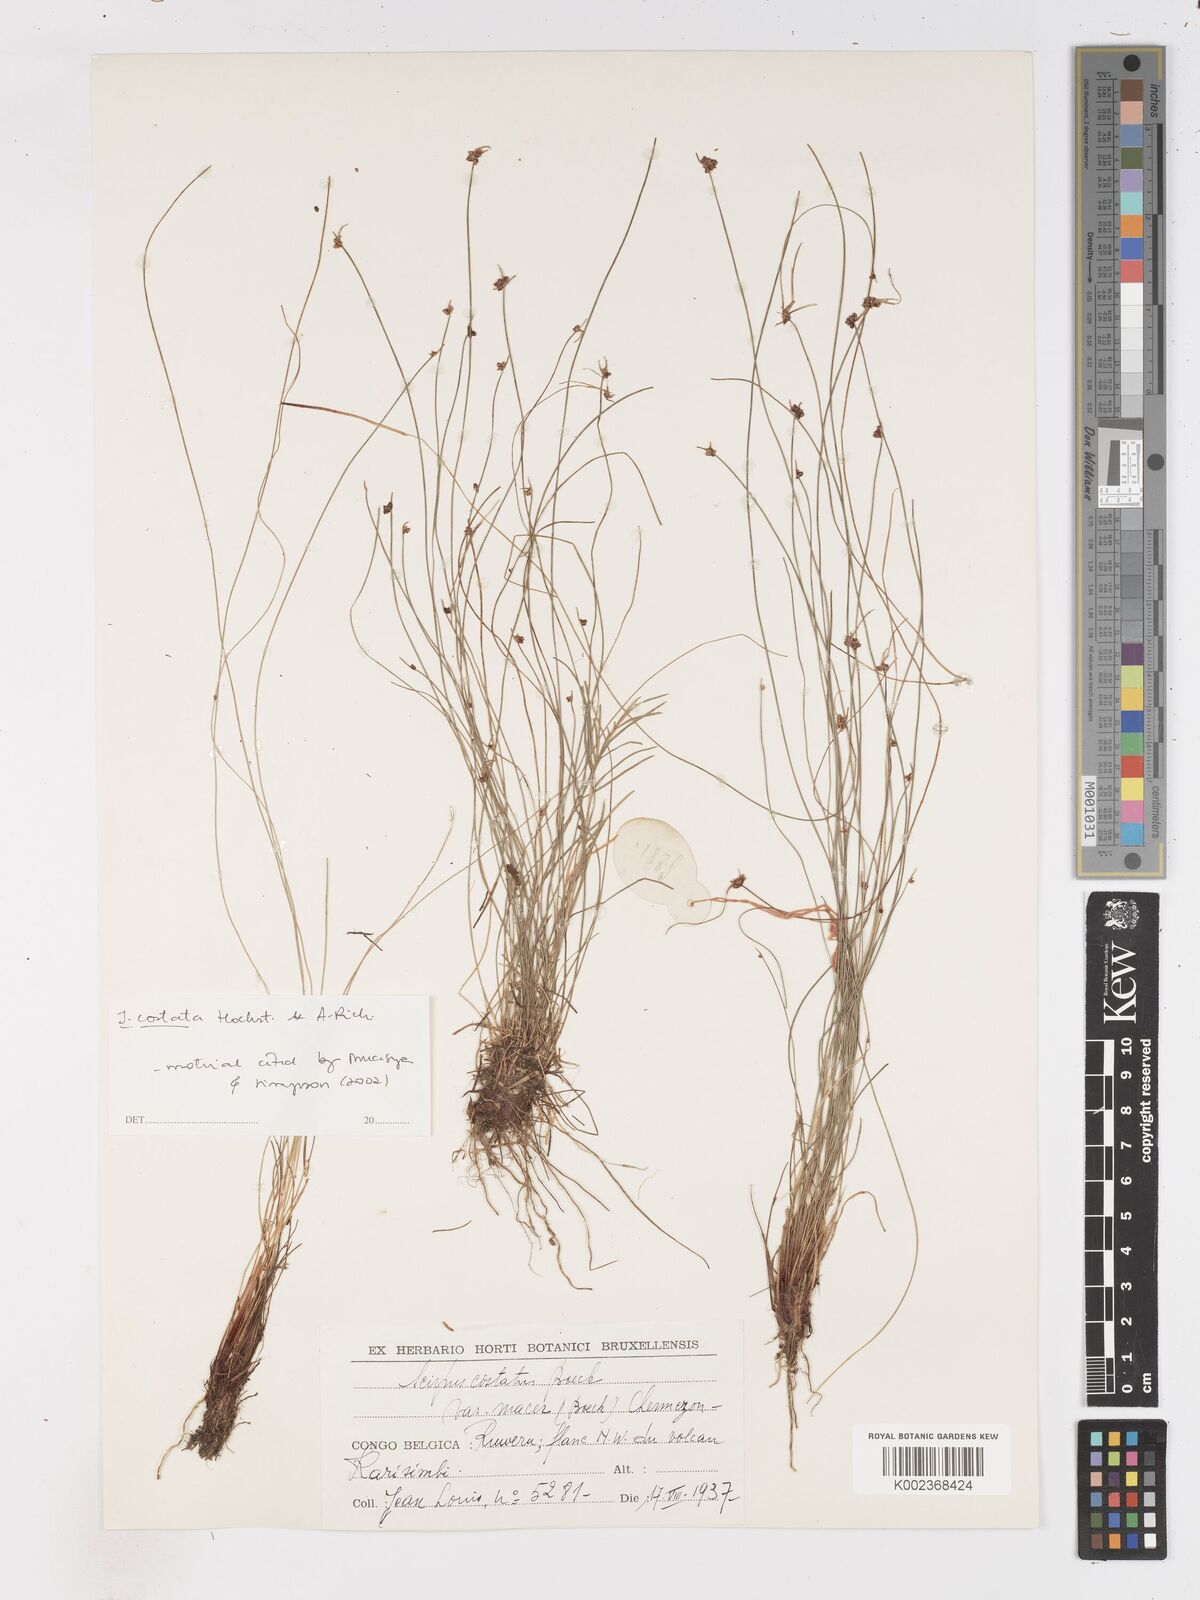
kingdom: Plantae
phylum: Tracheophyta
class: Liliopsida
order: Poales
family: Cyperaceae
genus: Isolepis
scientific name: Isolepis costata
